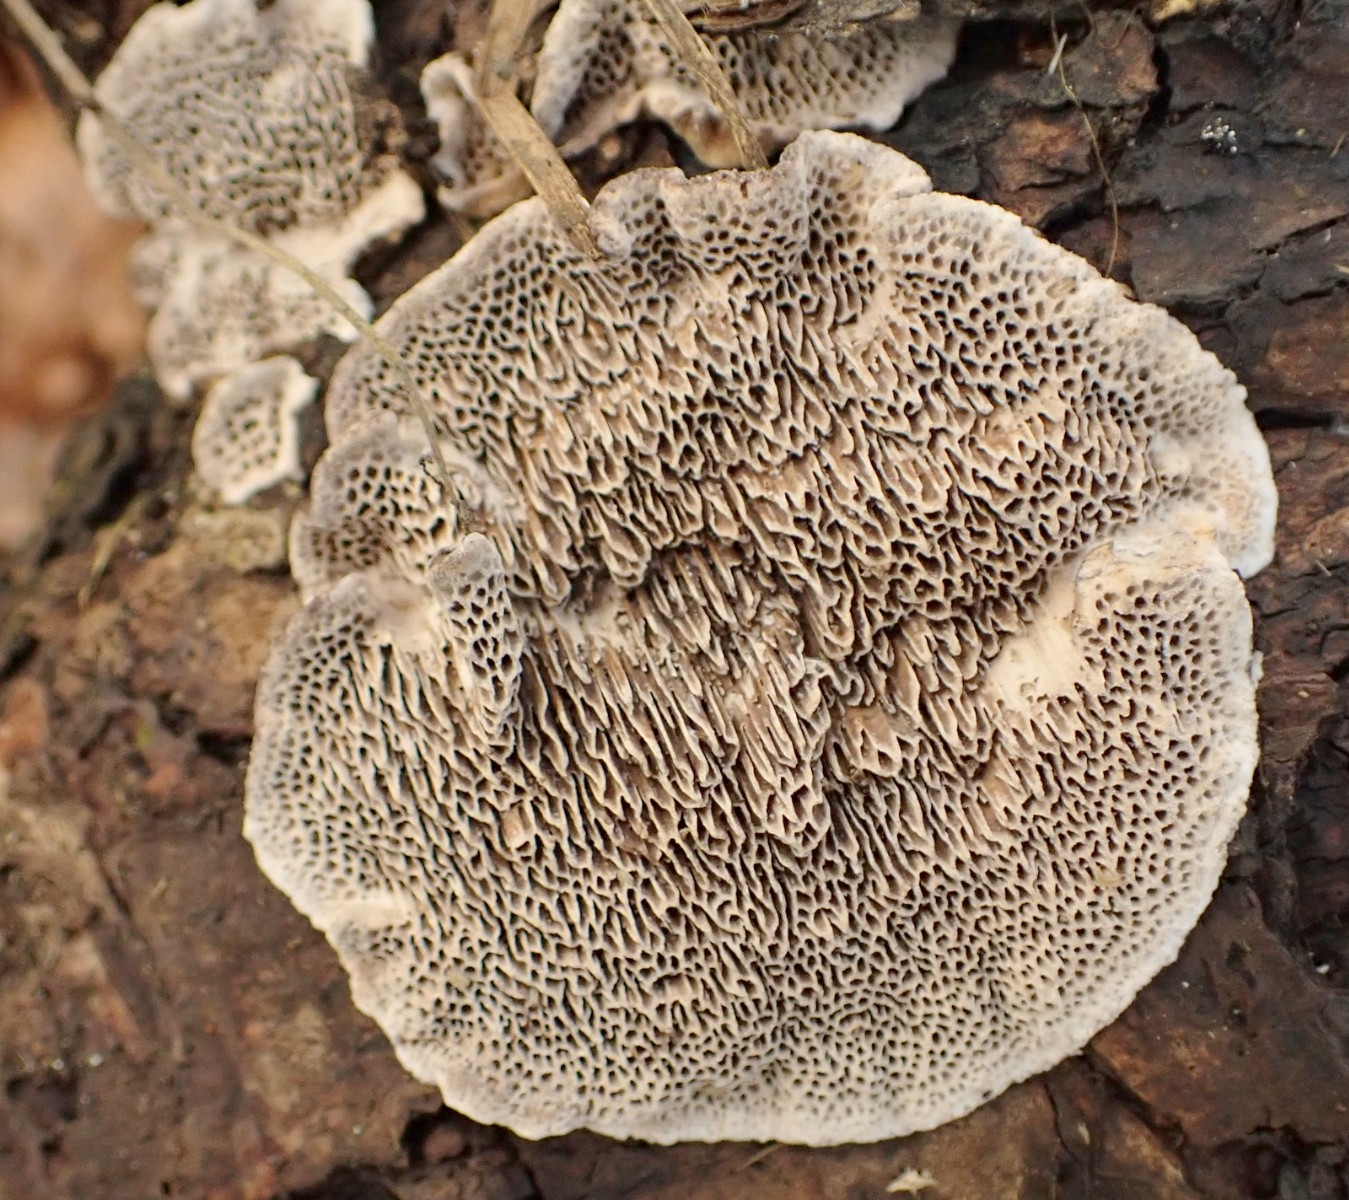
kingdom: Fungi
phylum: Basidiomycota
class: Agaricomycetes
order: Polyporales
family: Polyporaceae
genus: Podofomes
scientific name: Podofomes mollis
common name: blød begporesvamp
